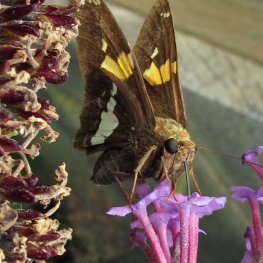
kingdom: Animalia
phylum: Arthropoda
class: Insecta
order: Lepidoptera
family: Hesperiidae
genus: Epargyreus
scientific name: Epargyreus clarus
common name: Silver-spotted Skipper
